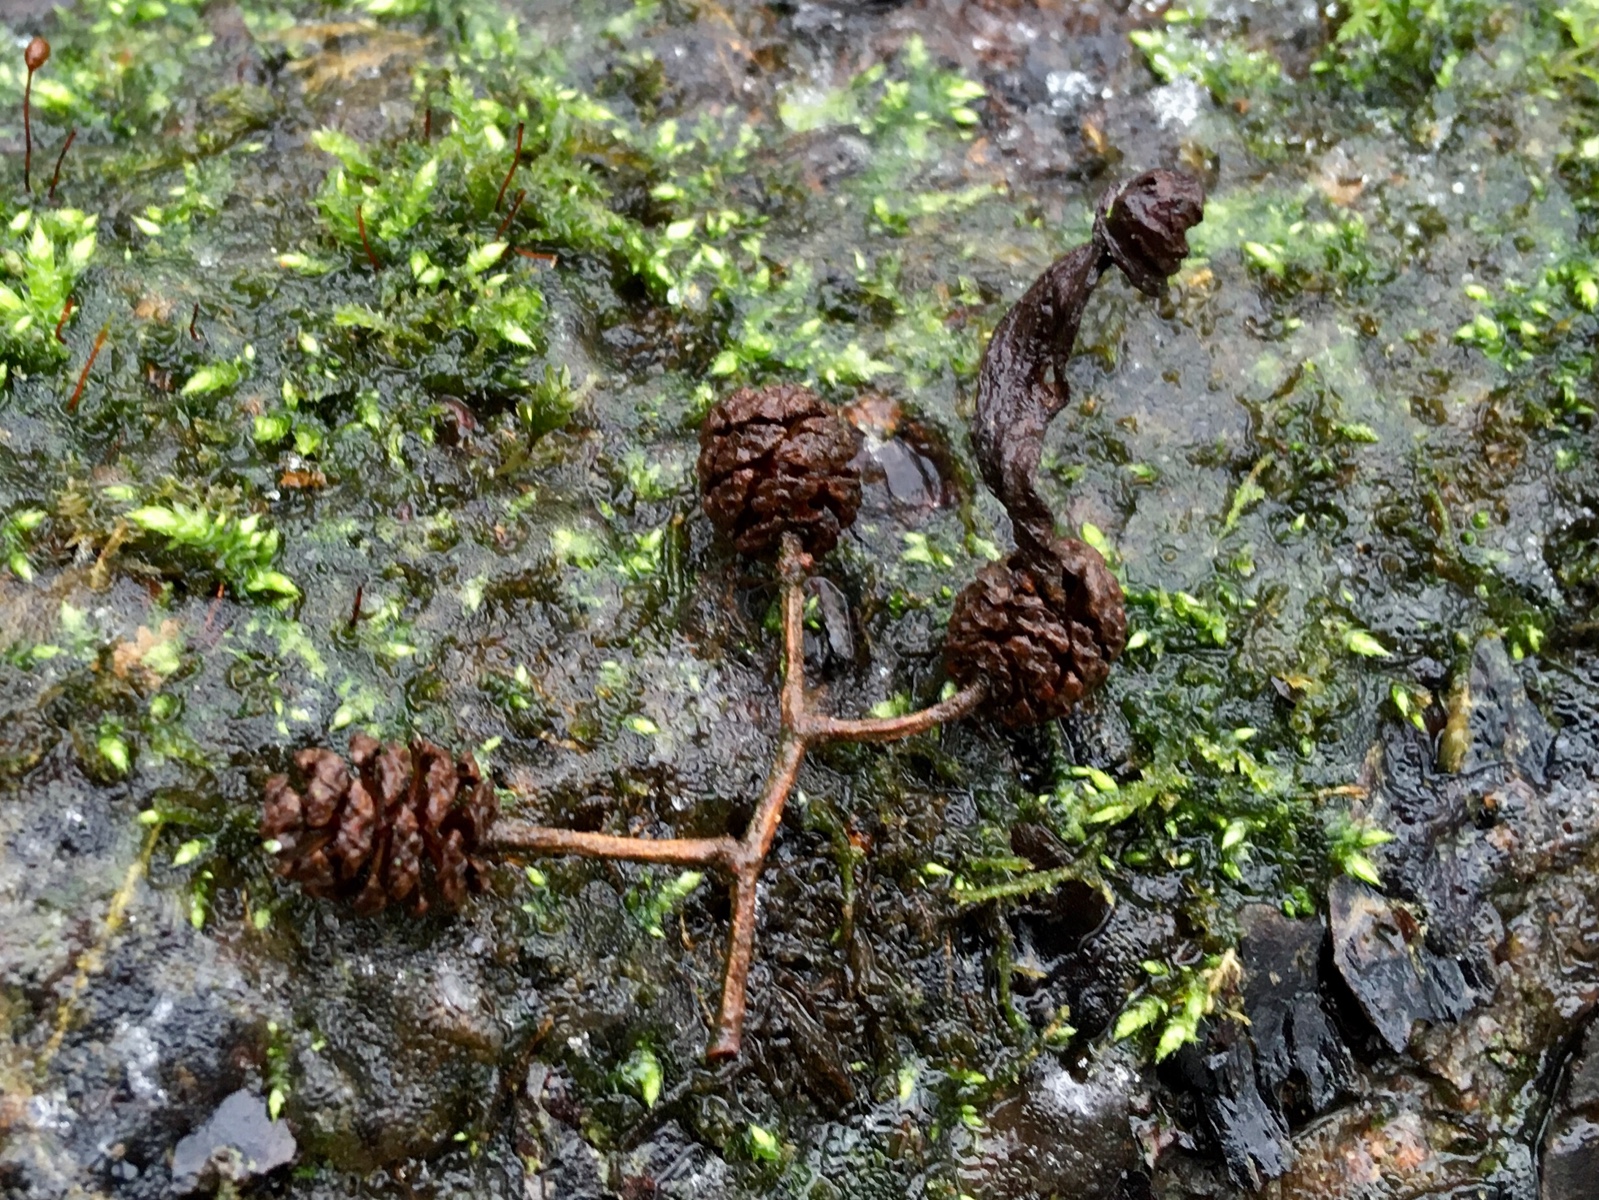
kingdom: Fungi
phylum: Ascomycota
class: Taphrinomycetes
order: Taphrinales
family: Taphrinaceae
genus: Taphrina
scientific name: Taphrina alni
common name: Alder tongue
